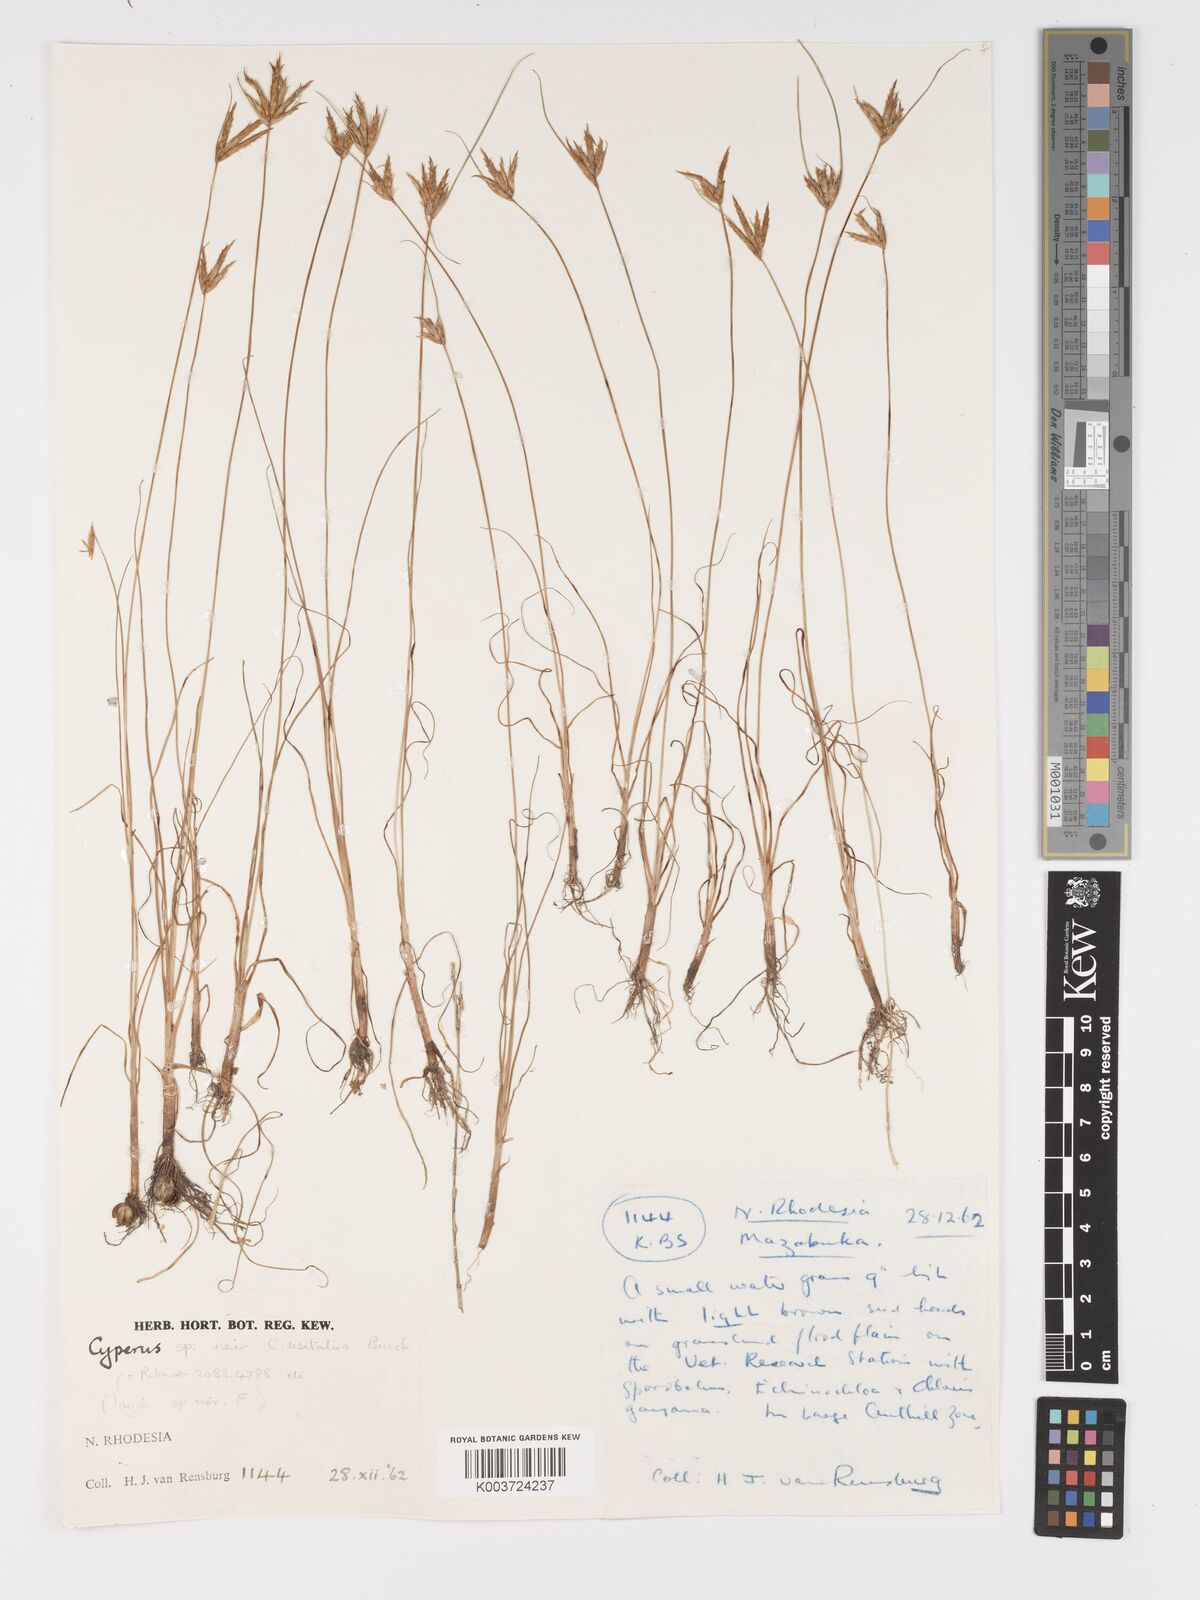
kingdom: Plantae
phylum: Tracheophyta
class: Liliopsida
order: Poales
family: Cyperaceae
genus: Cyperus
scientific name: Cyperus palmatus
